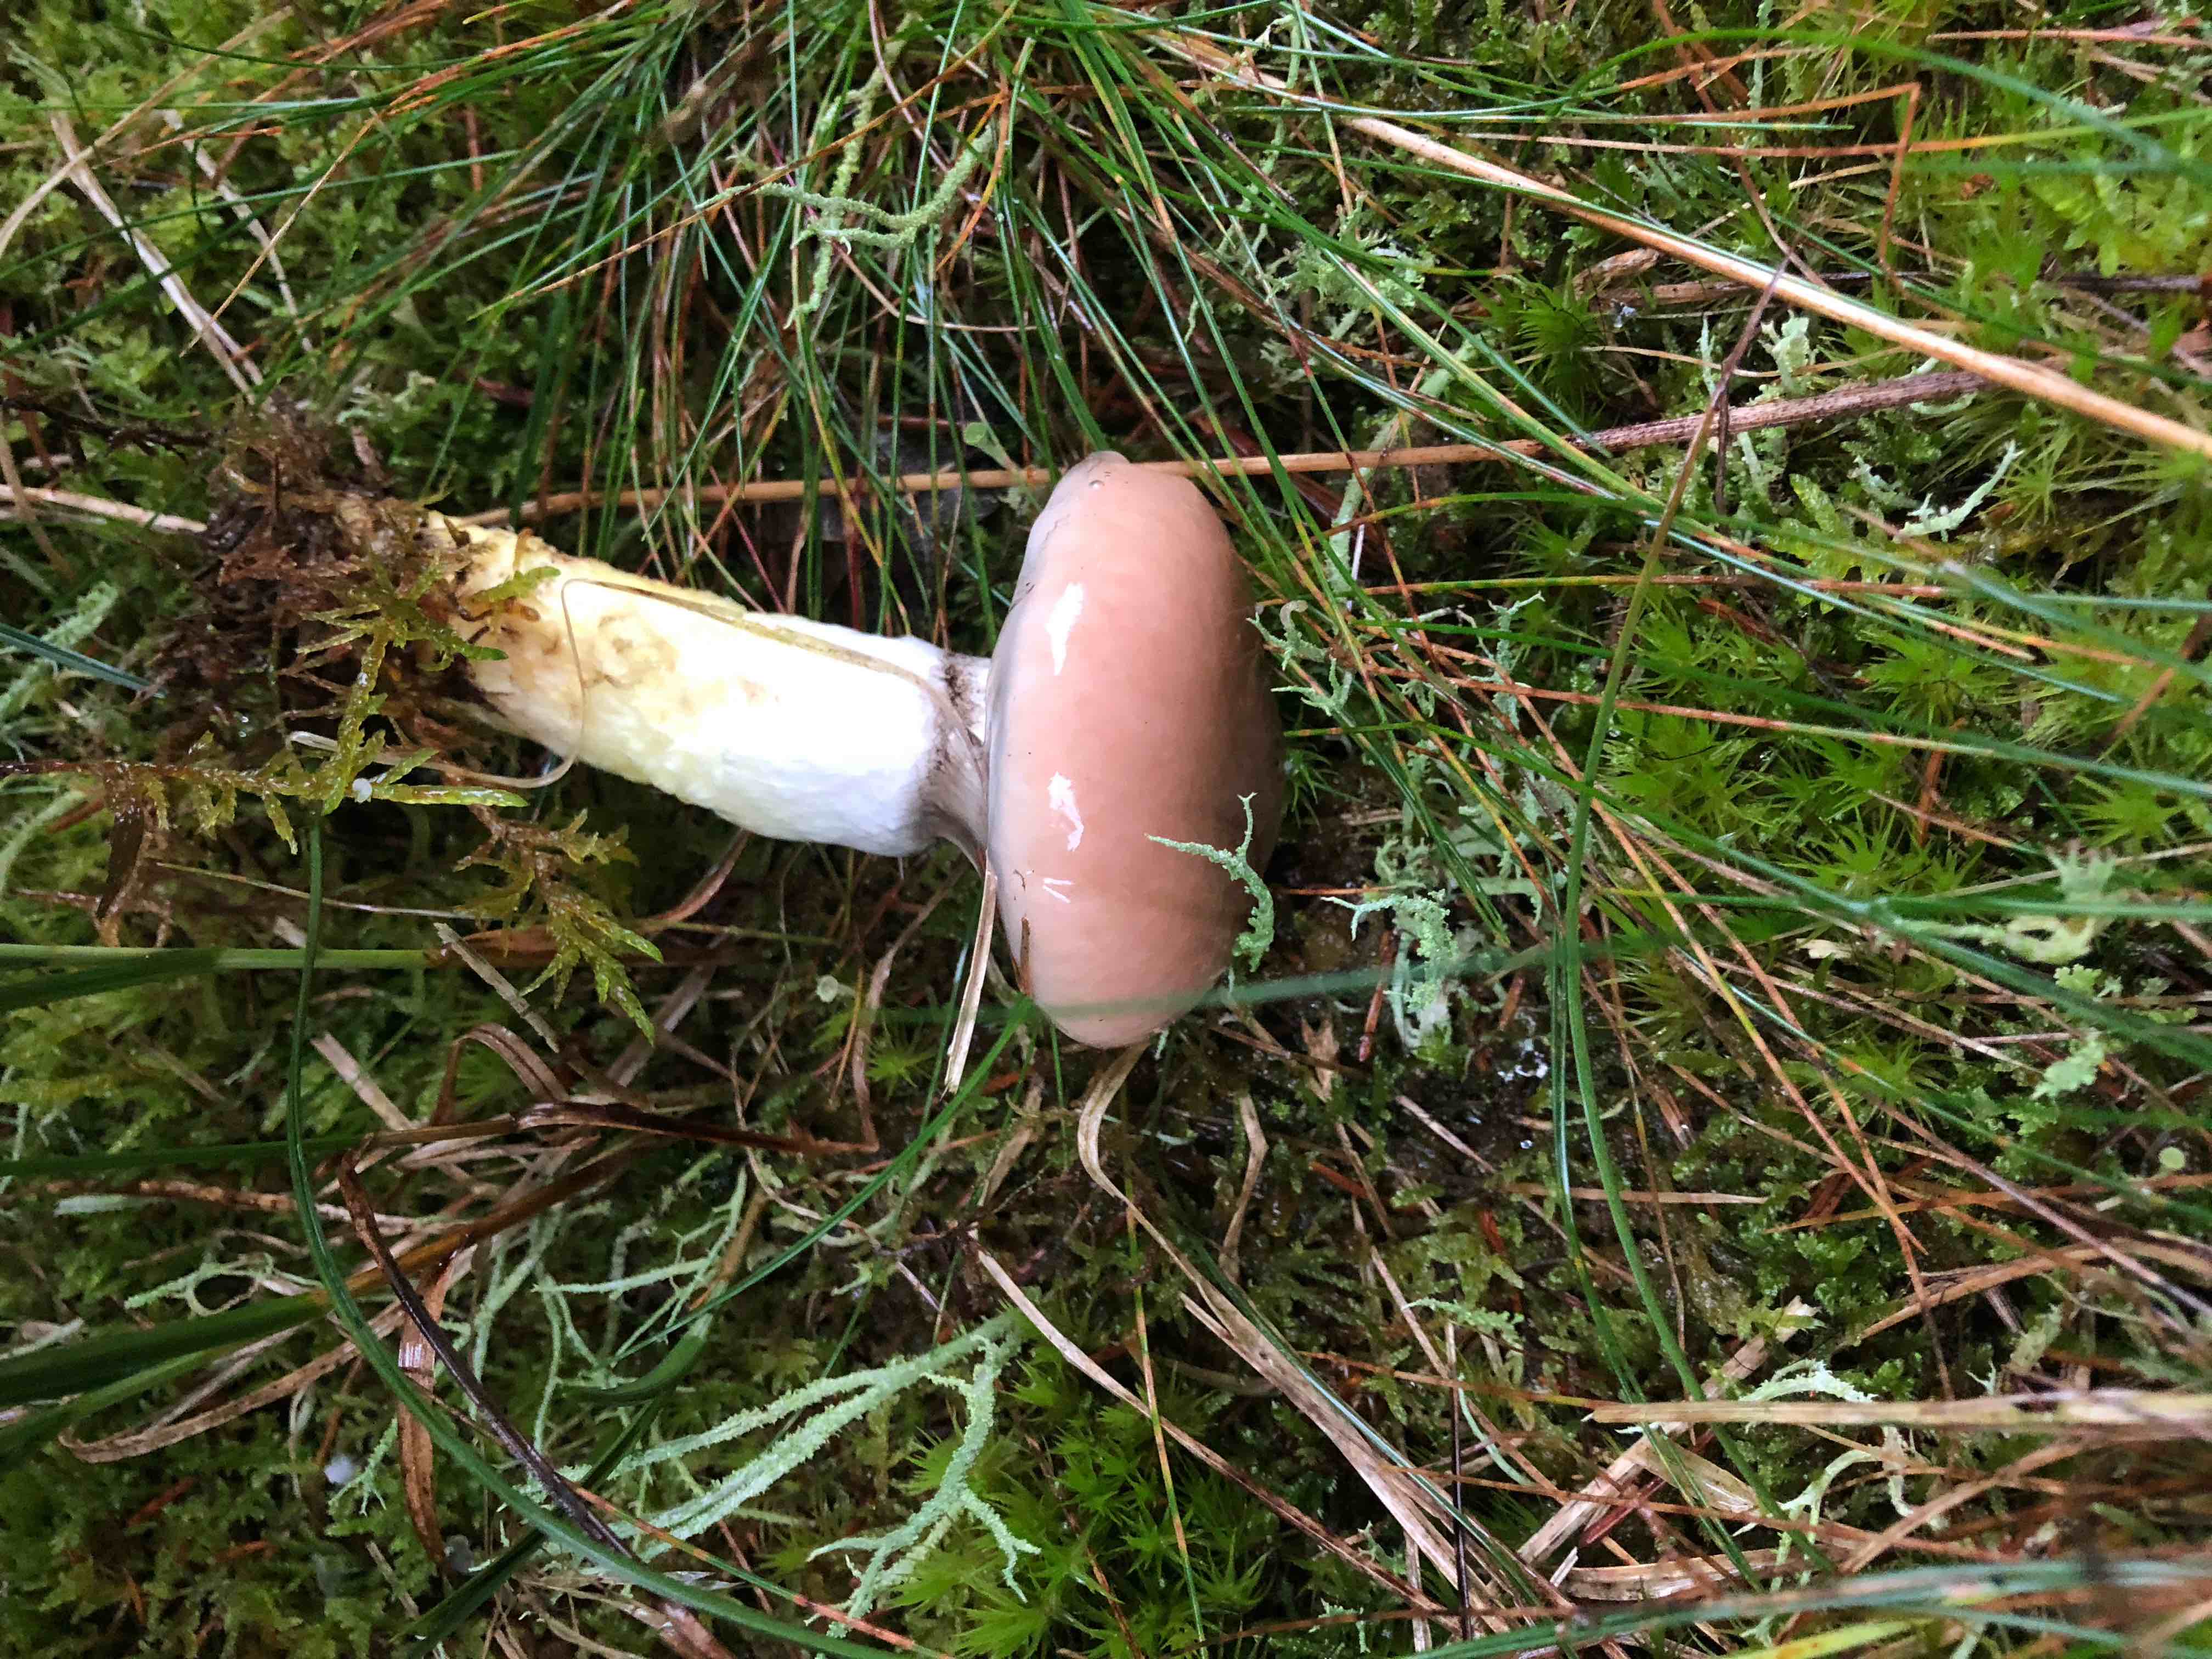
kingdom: Fungi
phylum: Basidiomycota
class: Agaricomycetes
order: Boletales
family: Gomphidiaceae
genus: Gomphidius
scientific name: Gomphidius glutinosus
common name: grå slimslør
